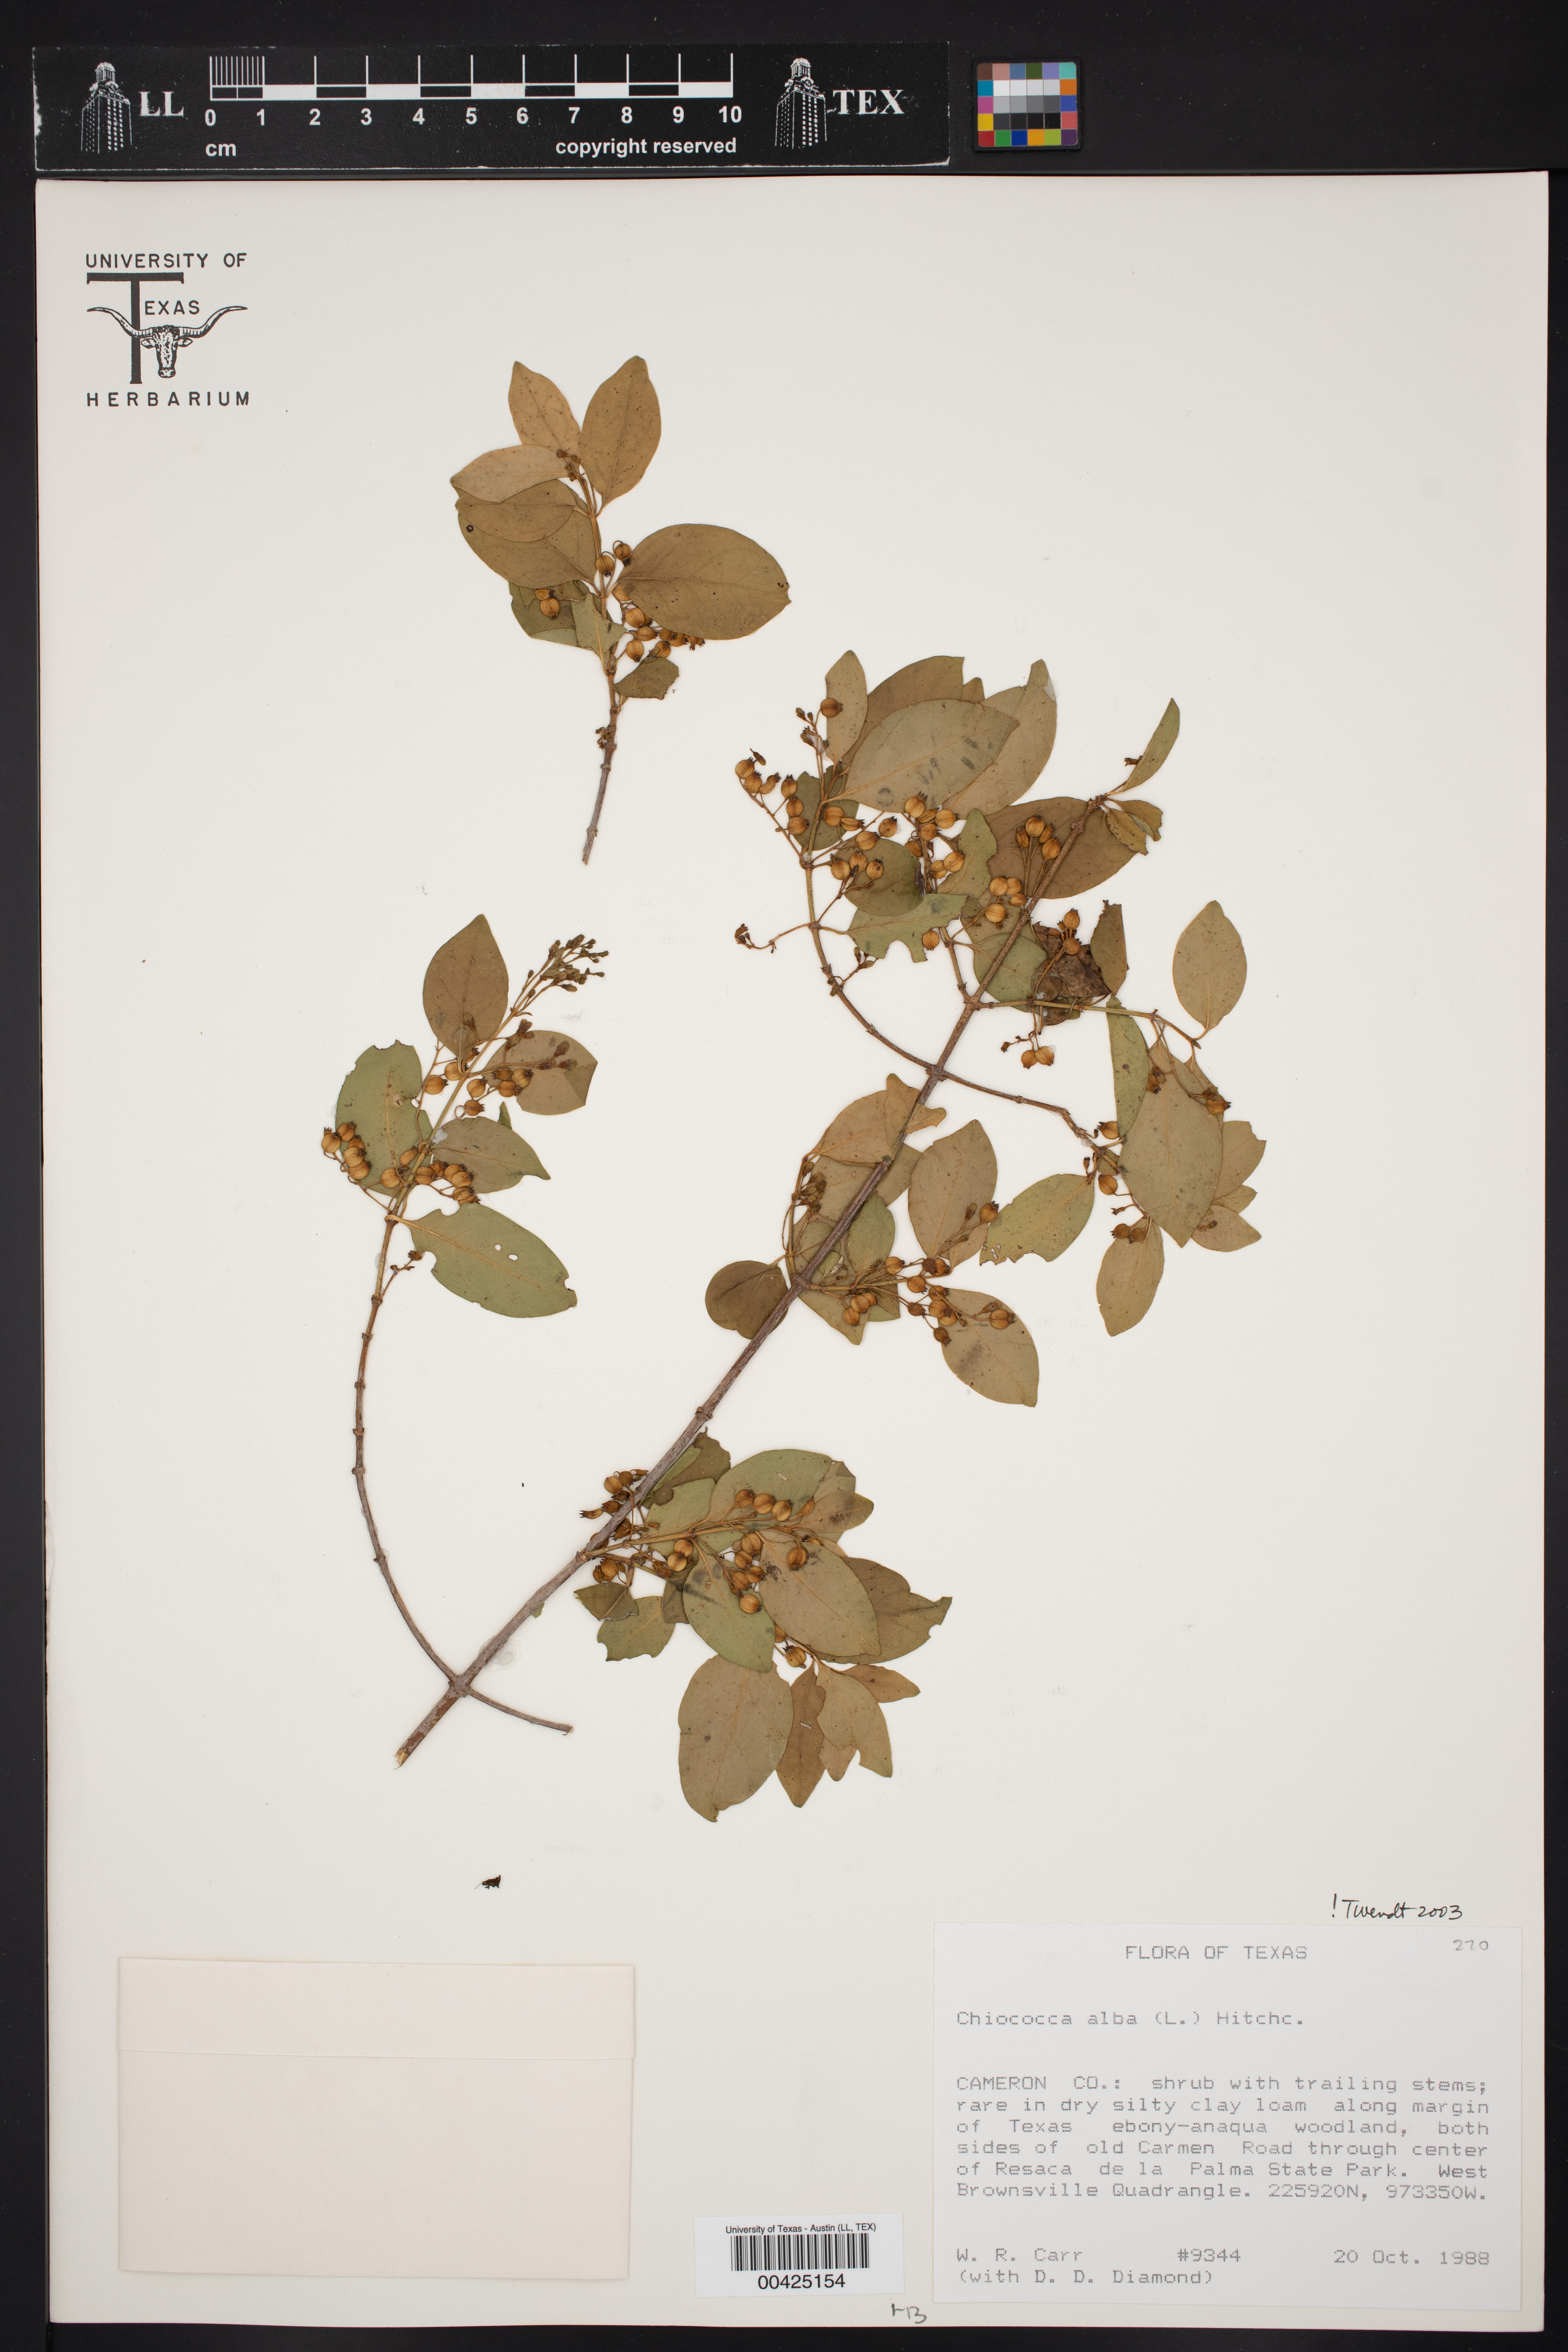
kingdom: Plantae
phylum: Tracheophyta
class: Magnoliopsida
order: Gentianales
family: Rubiaceae
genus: Chiococca
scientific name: Chiococca alba
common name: Snowberry
